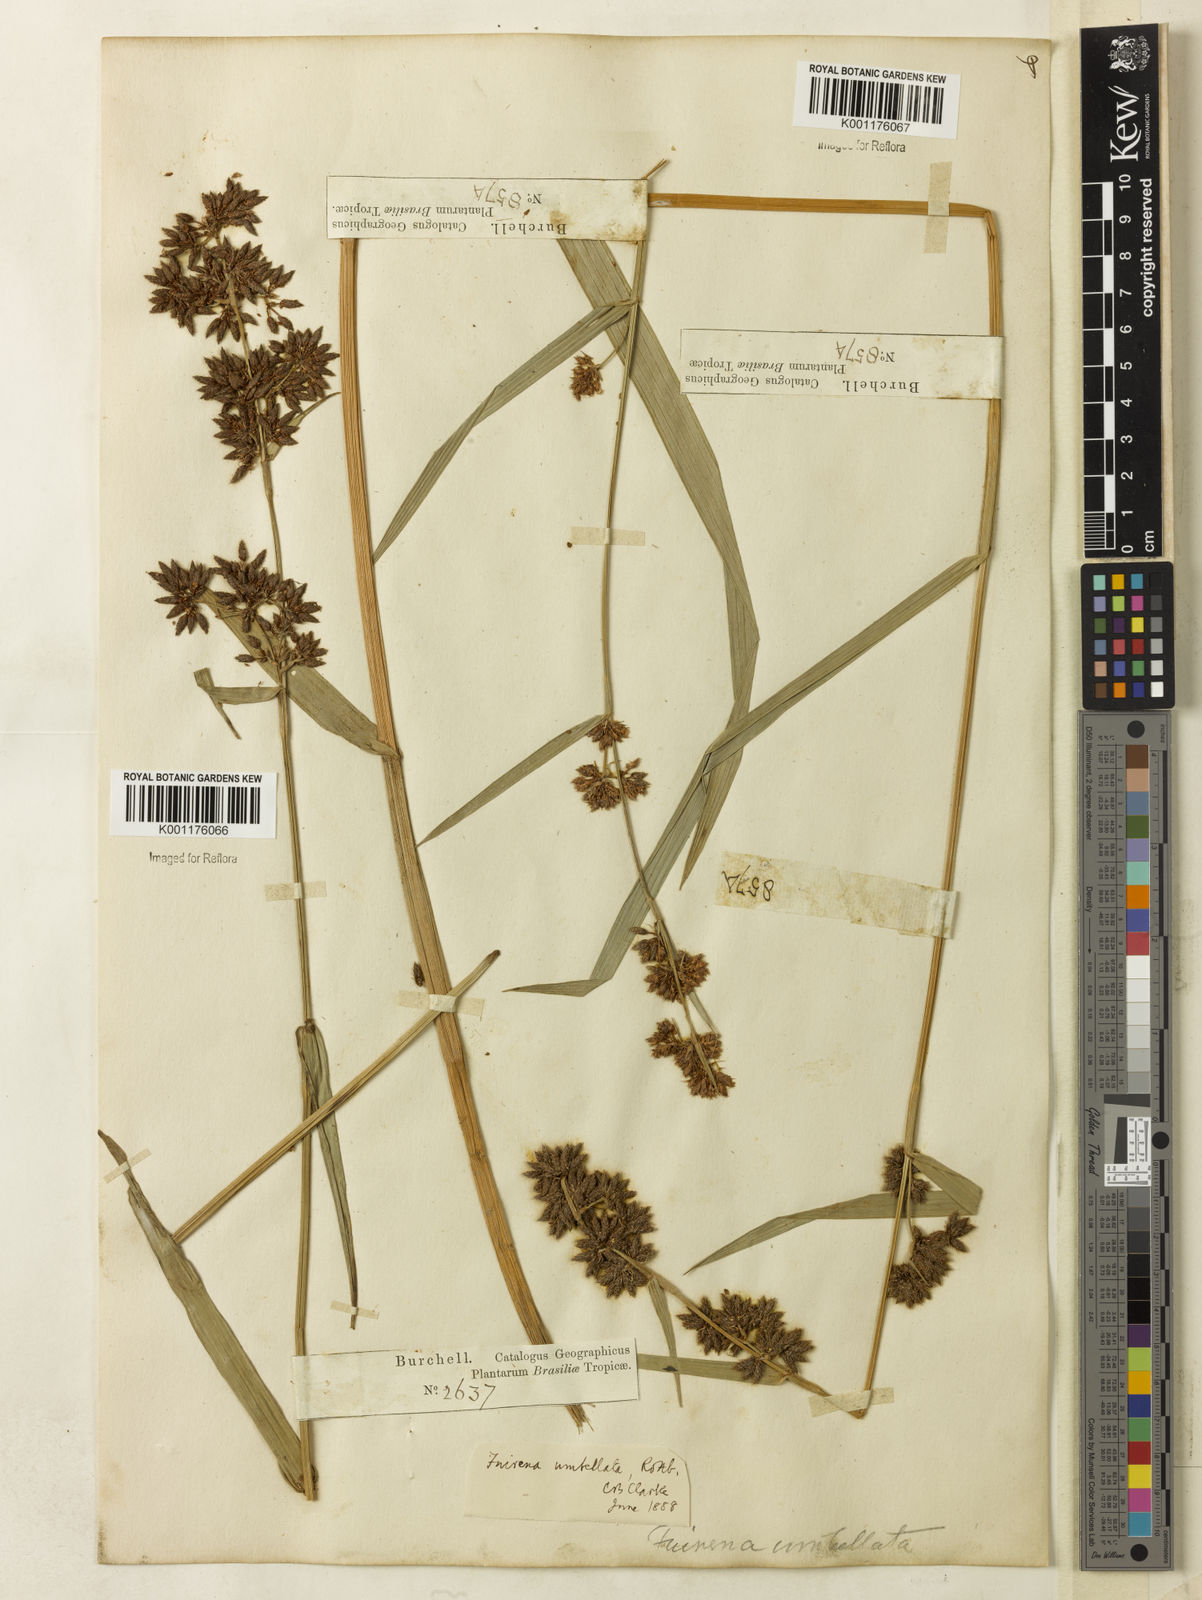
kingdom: Plantae
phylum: Tracheophyta
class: Liliopsida
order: Poales
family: Cyperaceae
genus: Fuirena
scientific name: Fuirena umbellata
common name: Yefen
